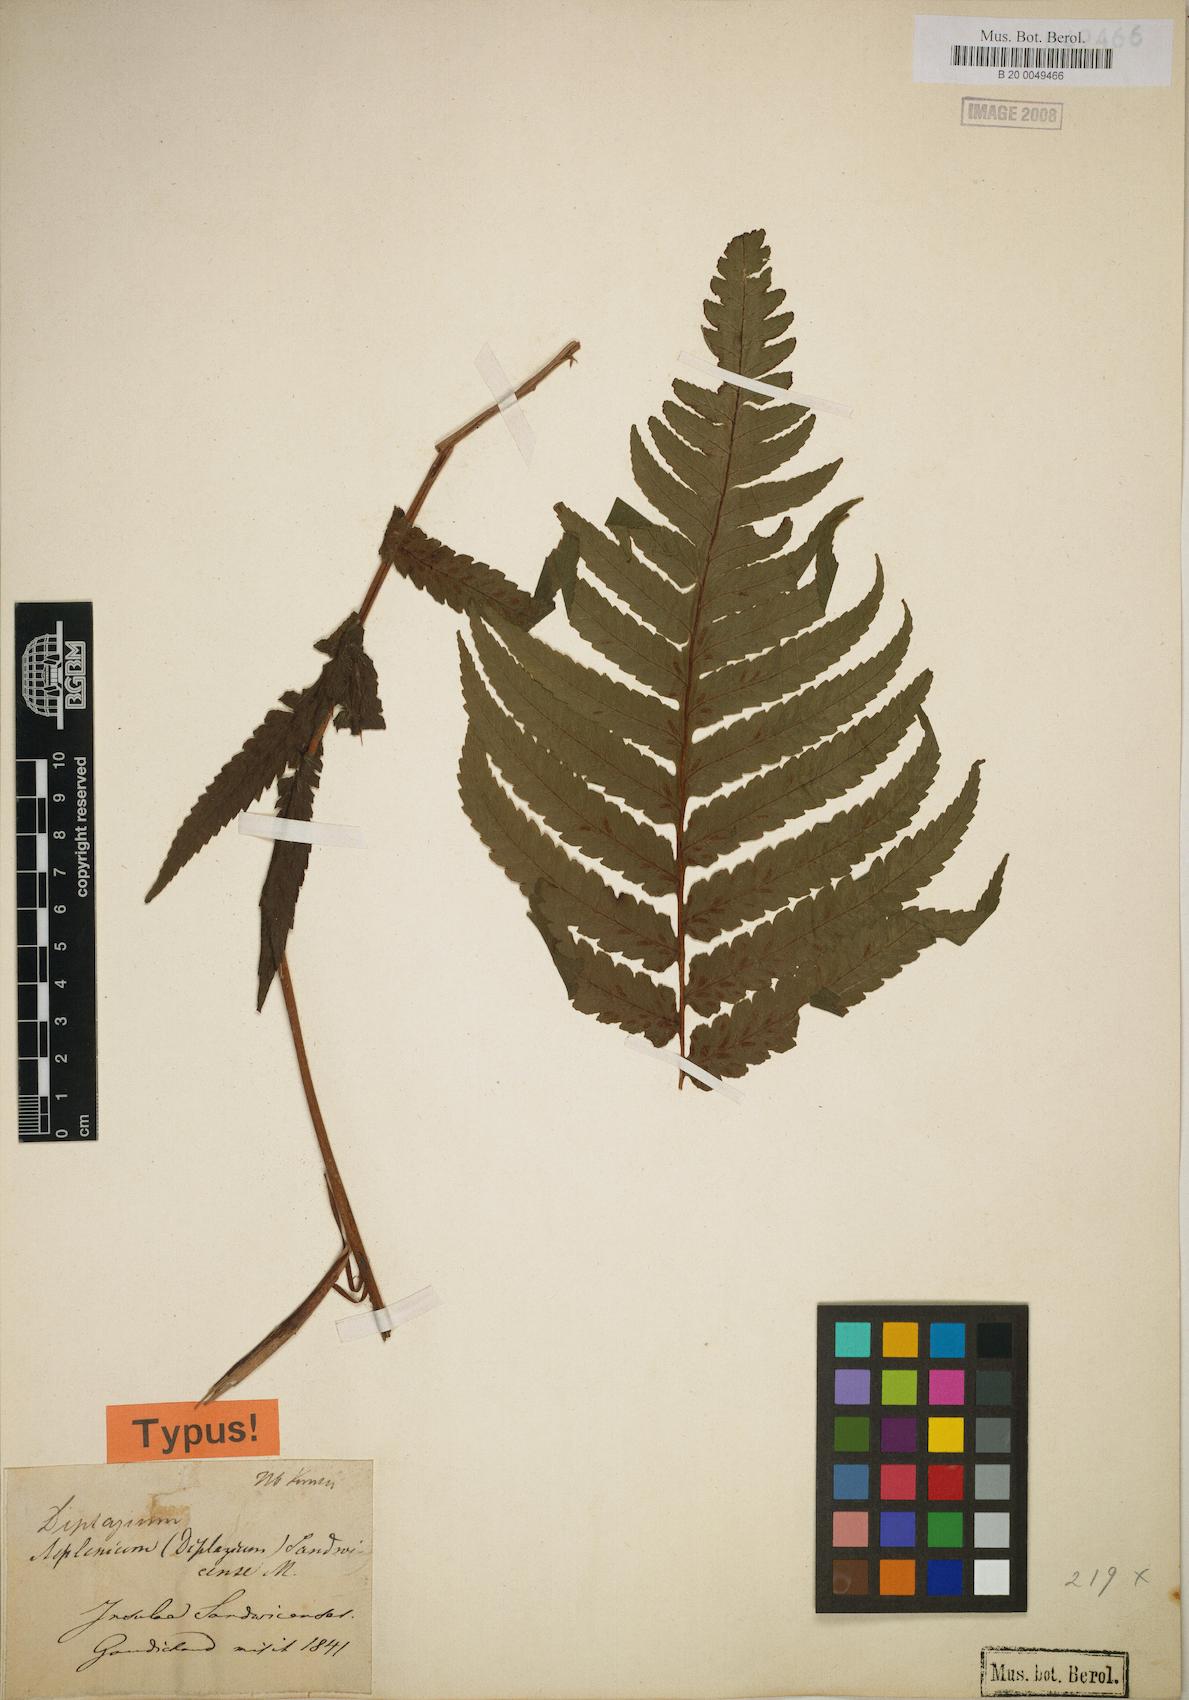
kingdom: Plantae
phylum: Tracheophyta
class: Polypodiopsida
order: Polypodiales
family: Athyriaceae
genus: Diplazium
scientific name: Diplazium sandwichianum
